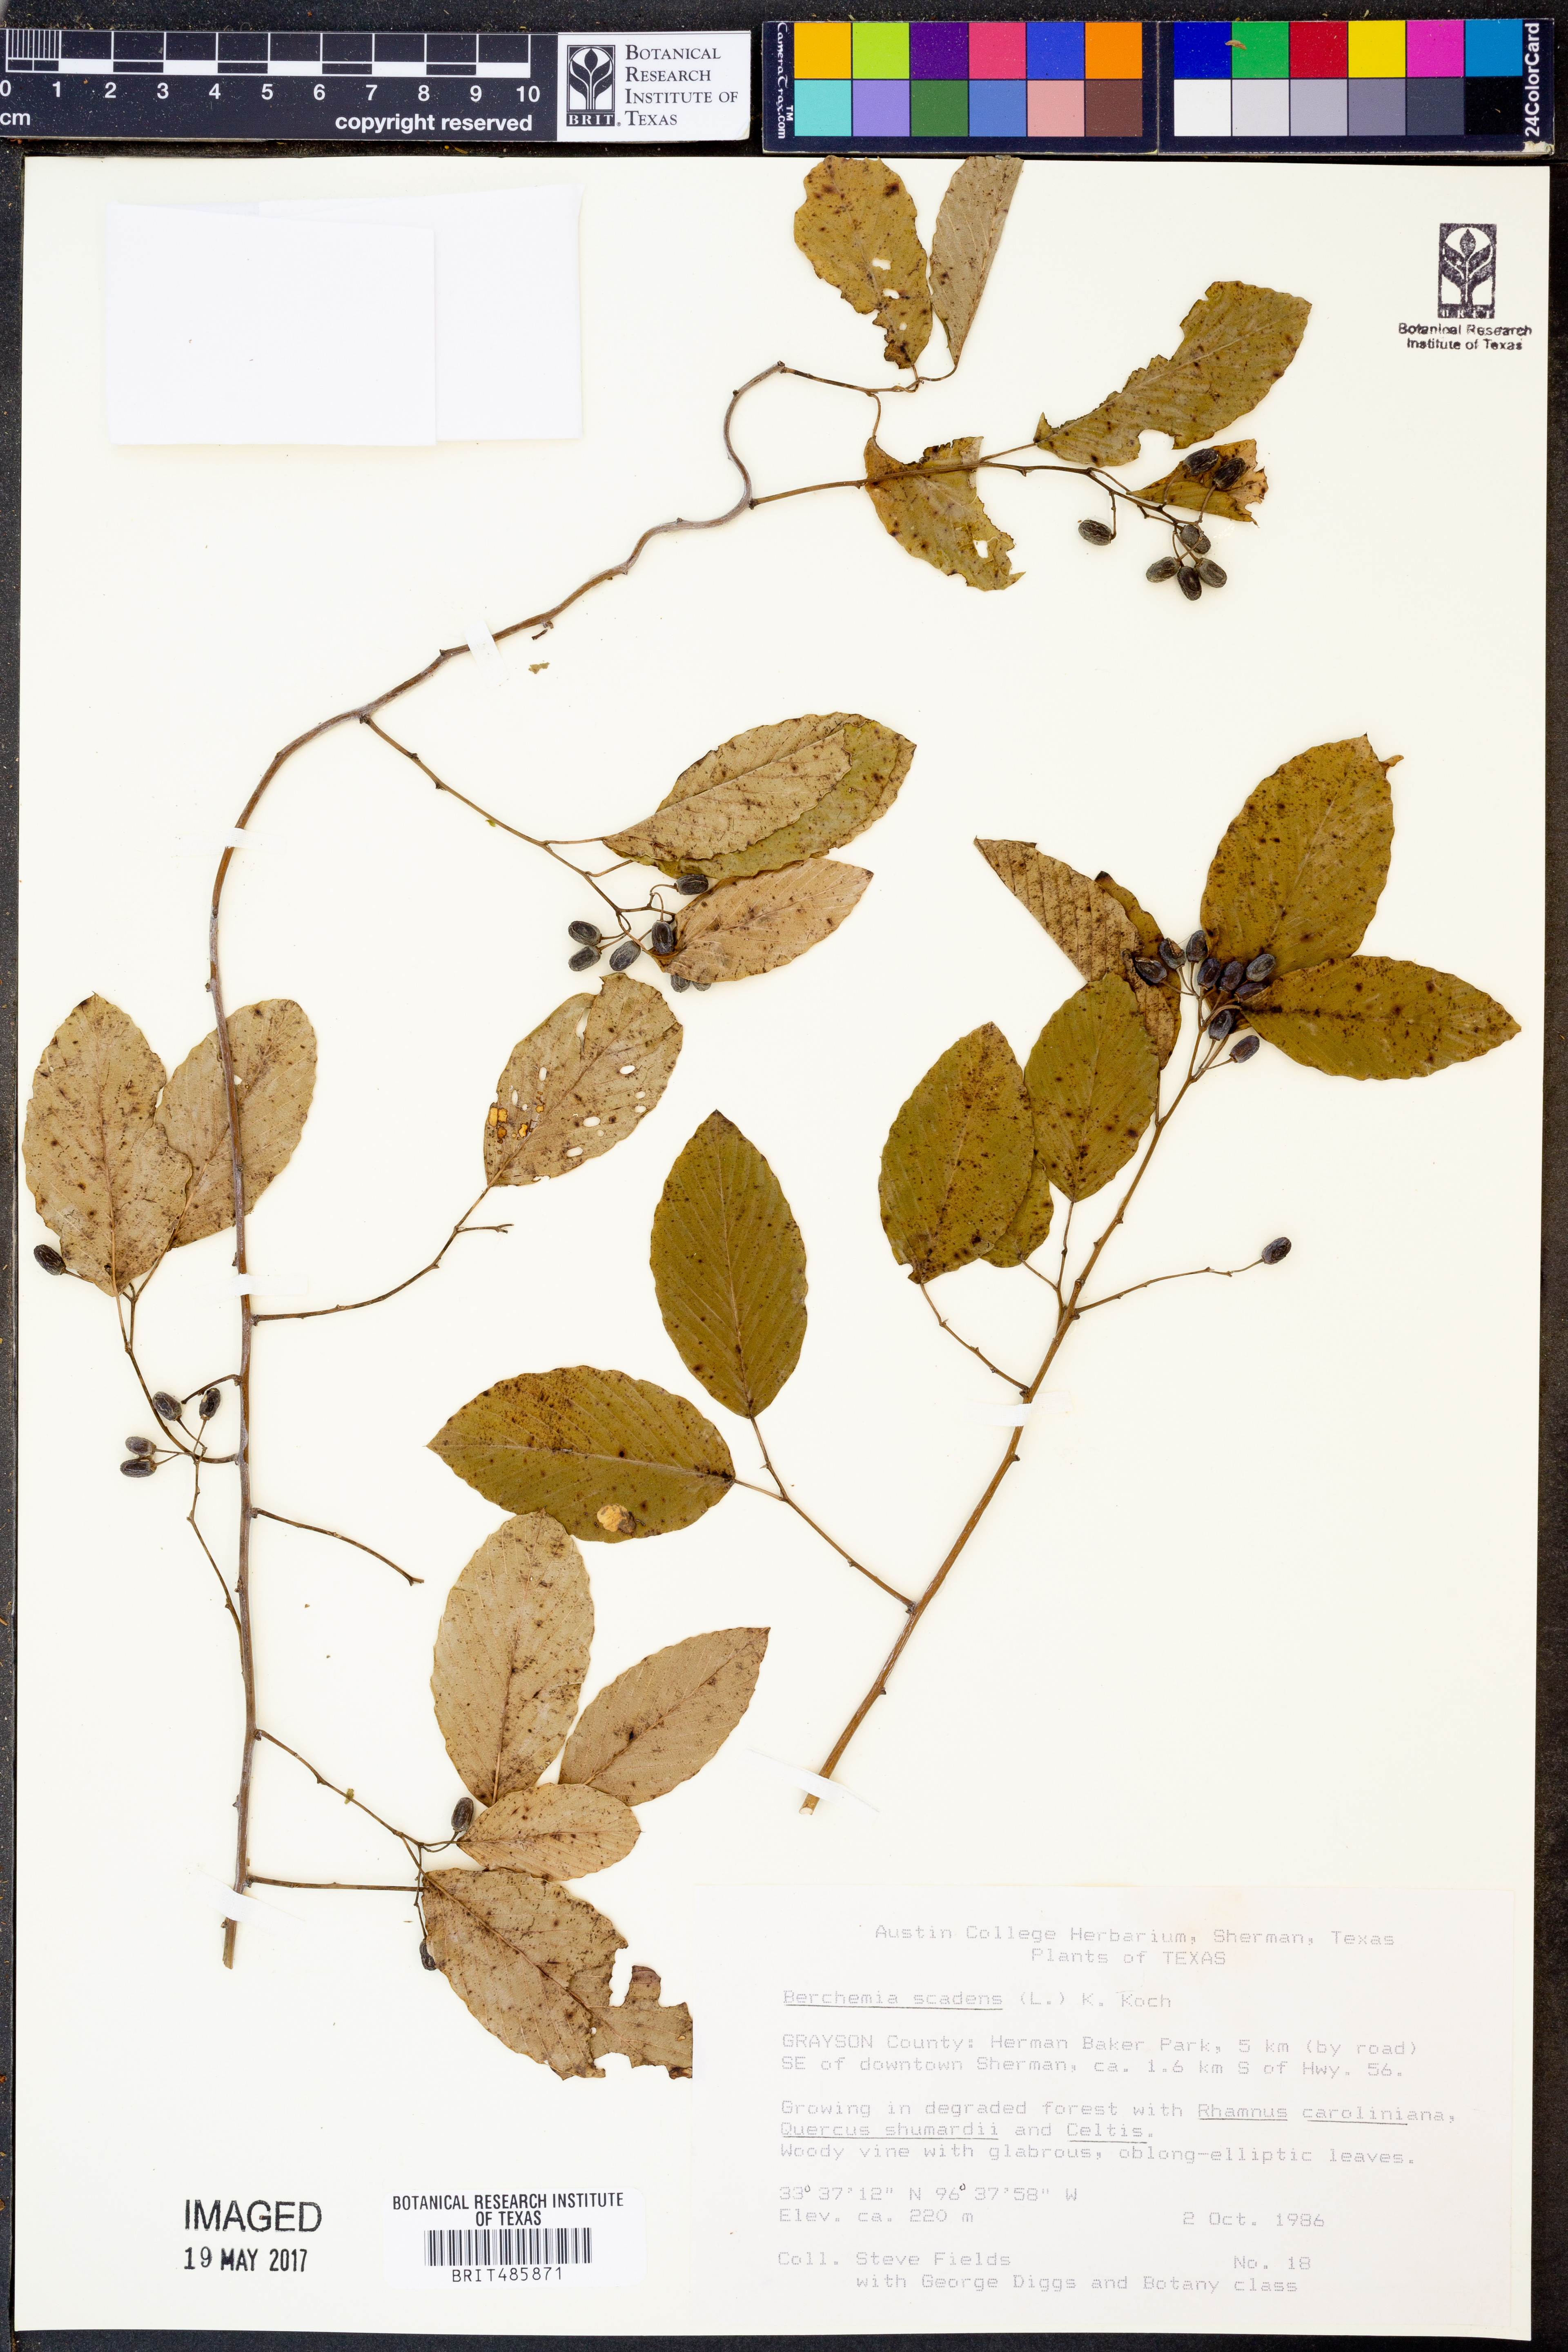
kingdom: Plantae
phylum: Tracheophyta
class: Magnoliopsida
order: Rosales
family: Rhamnaceae
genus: Berchemia
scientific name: Berchemia scandens
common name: Supplejack
